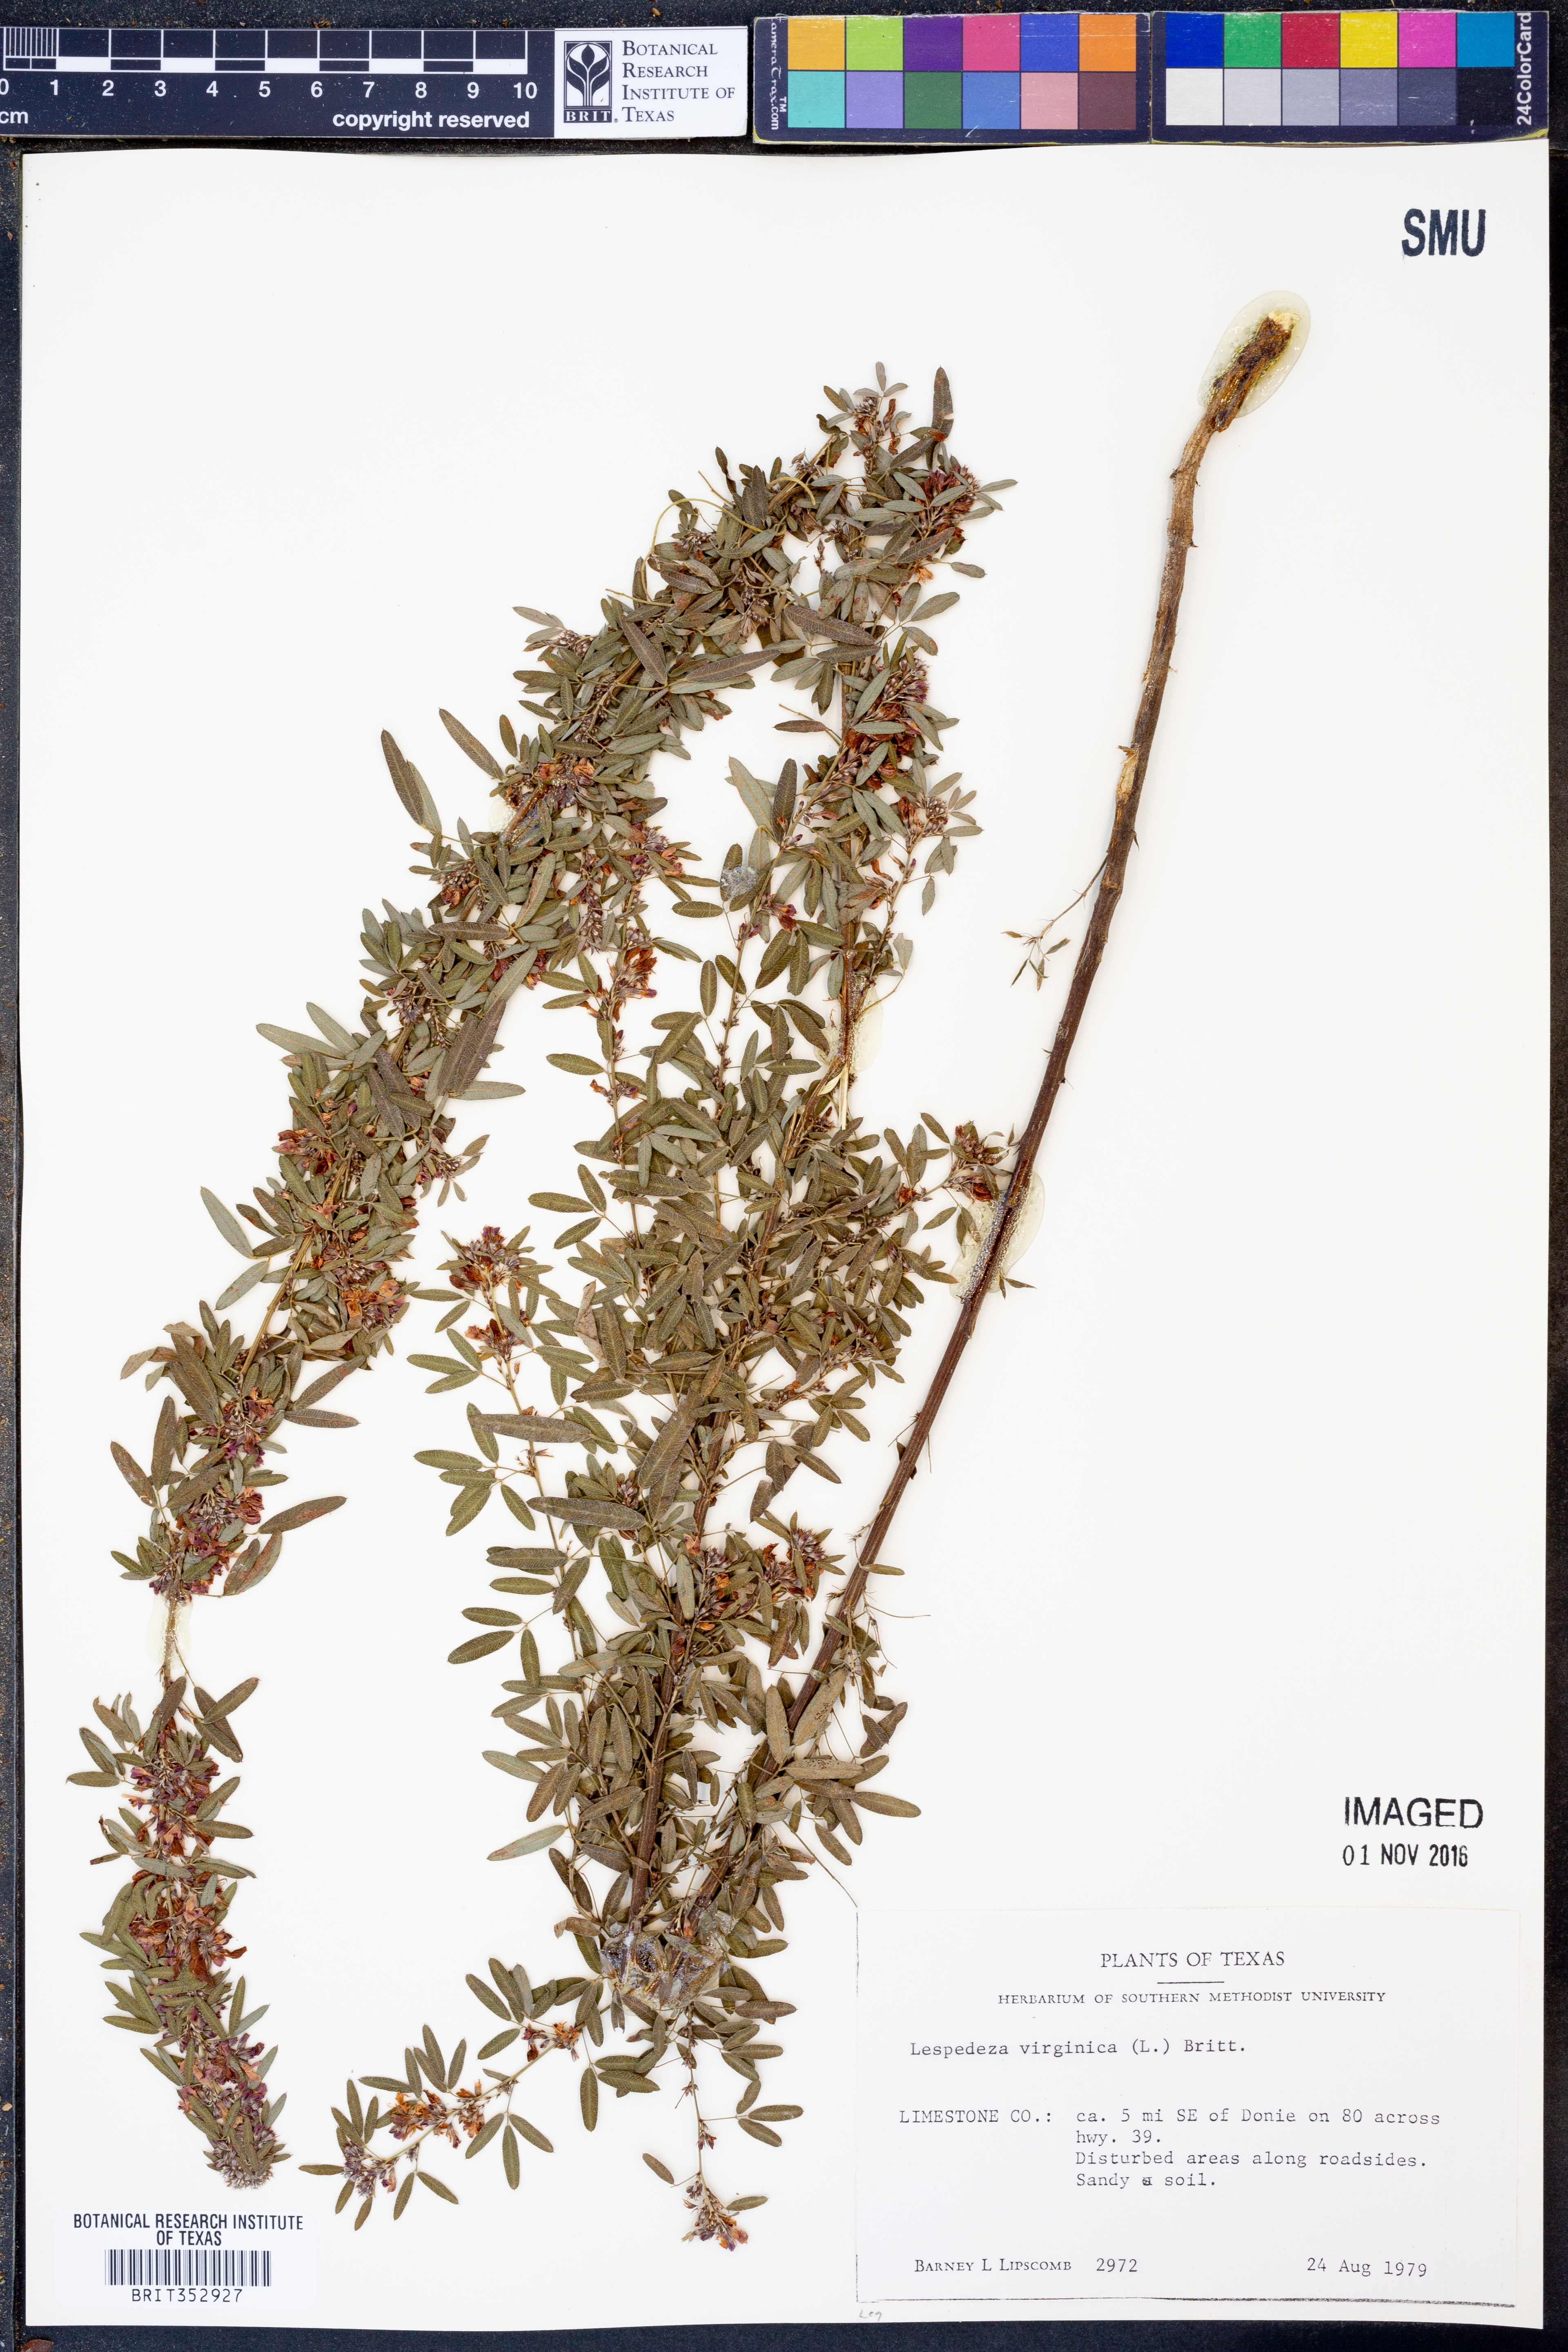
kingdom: Plantae
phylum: Tracheophyta
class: Magnoliopsida
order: Fabales
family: Fabaceae
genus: Lespedeza
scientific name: Lespedeza virginica
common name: Slender bush-clover
